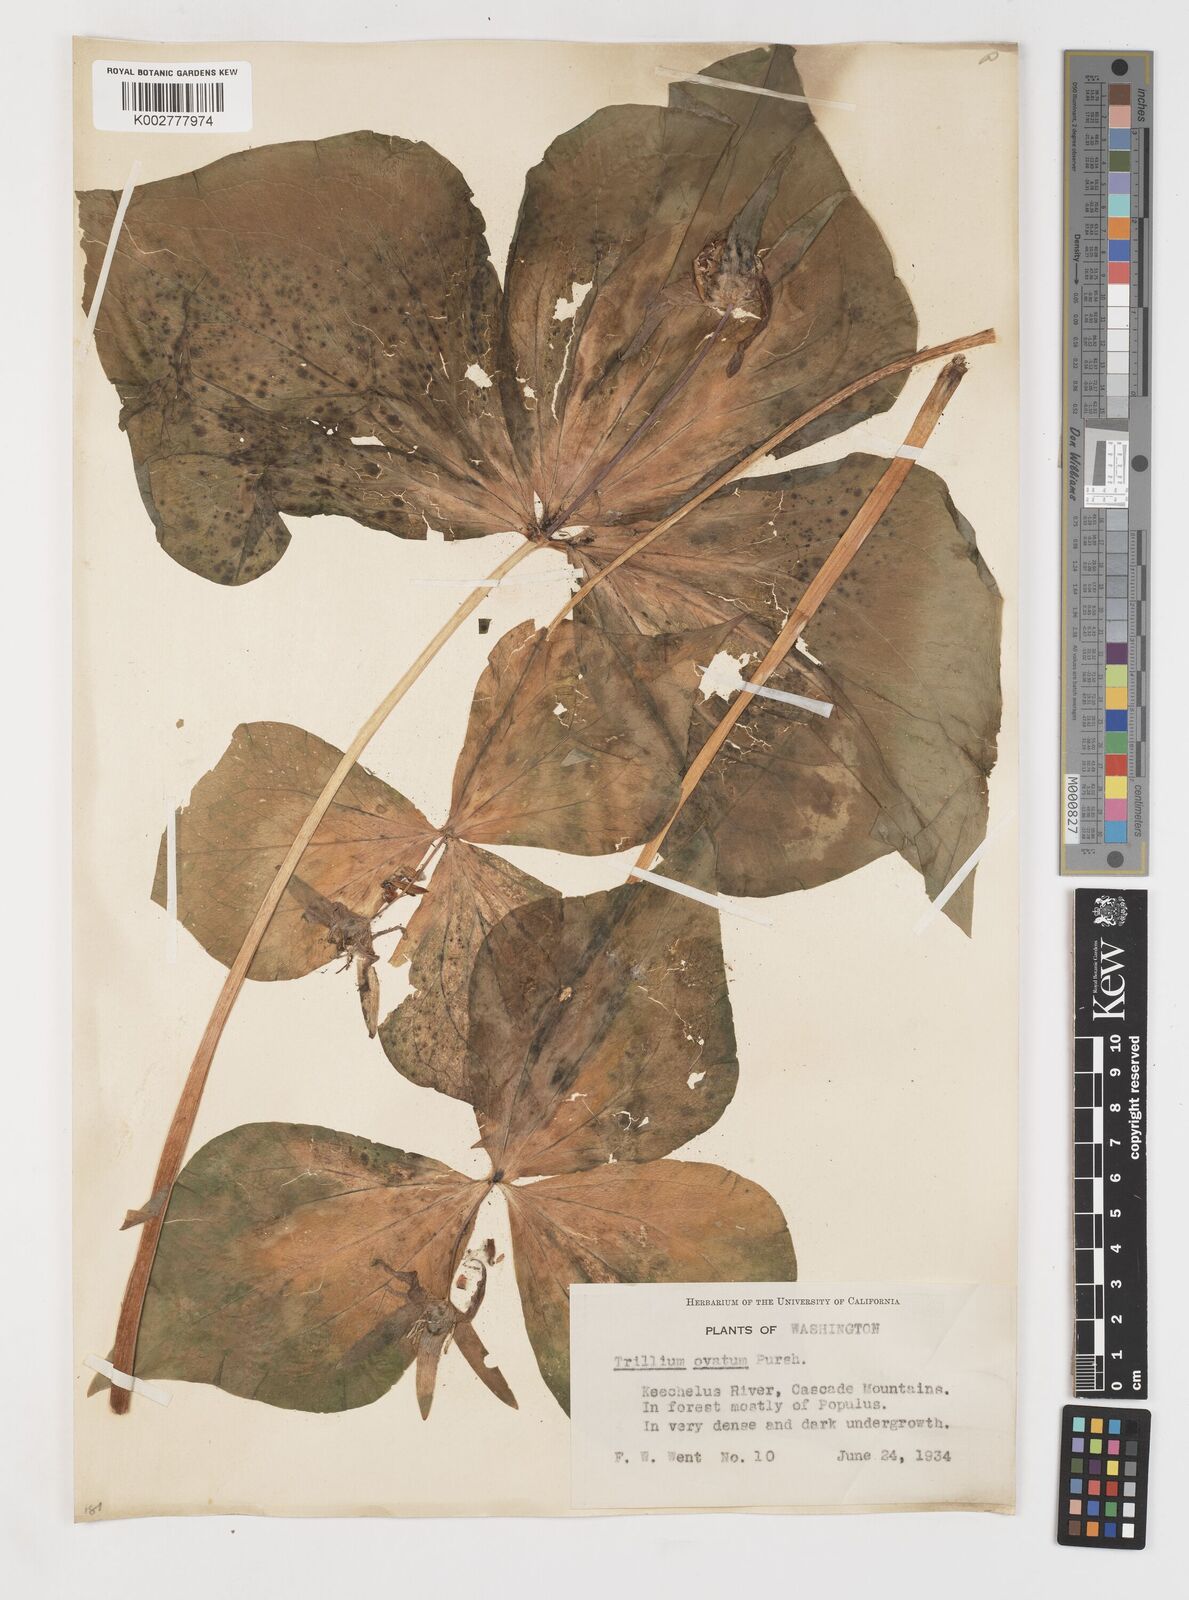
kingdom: Plantae
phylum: Tracheophyta
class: Liliopsida
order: Liliales
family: Melanthiaceae
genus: Trillium
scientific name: Trillium ovatum
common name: Pacific trillium
